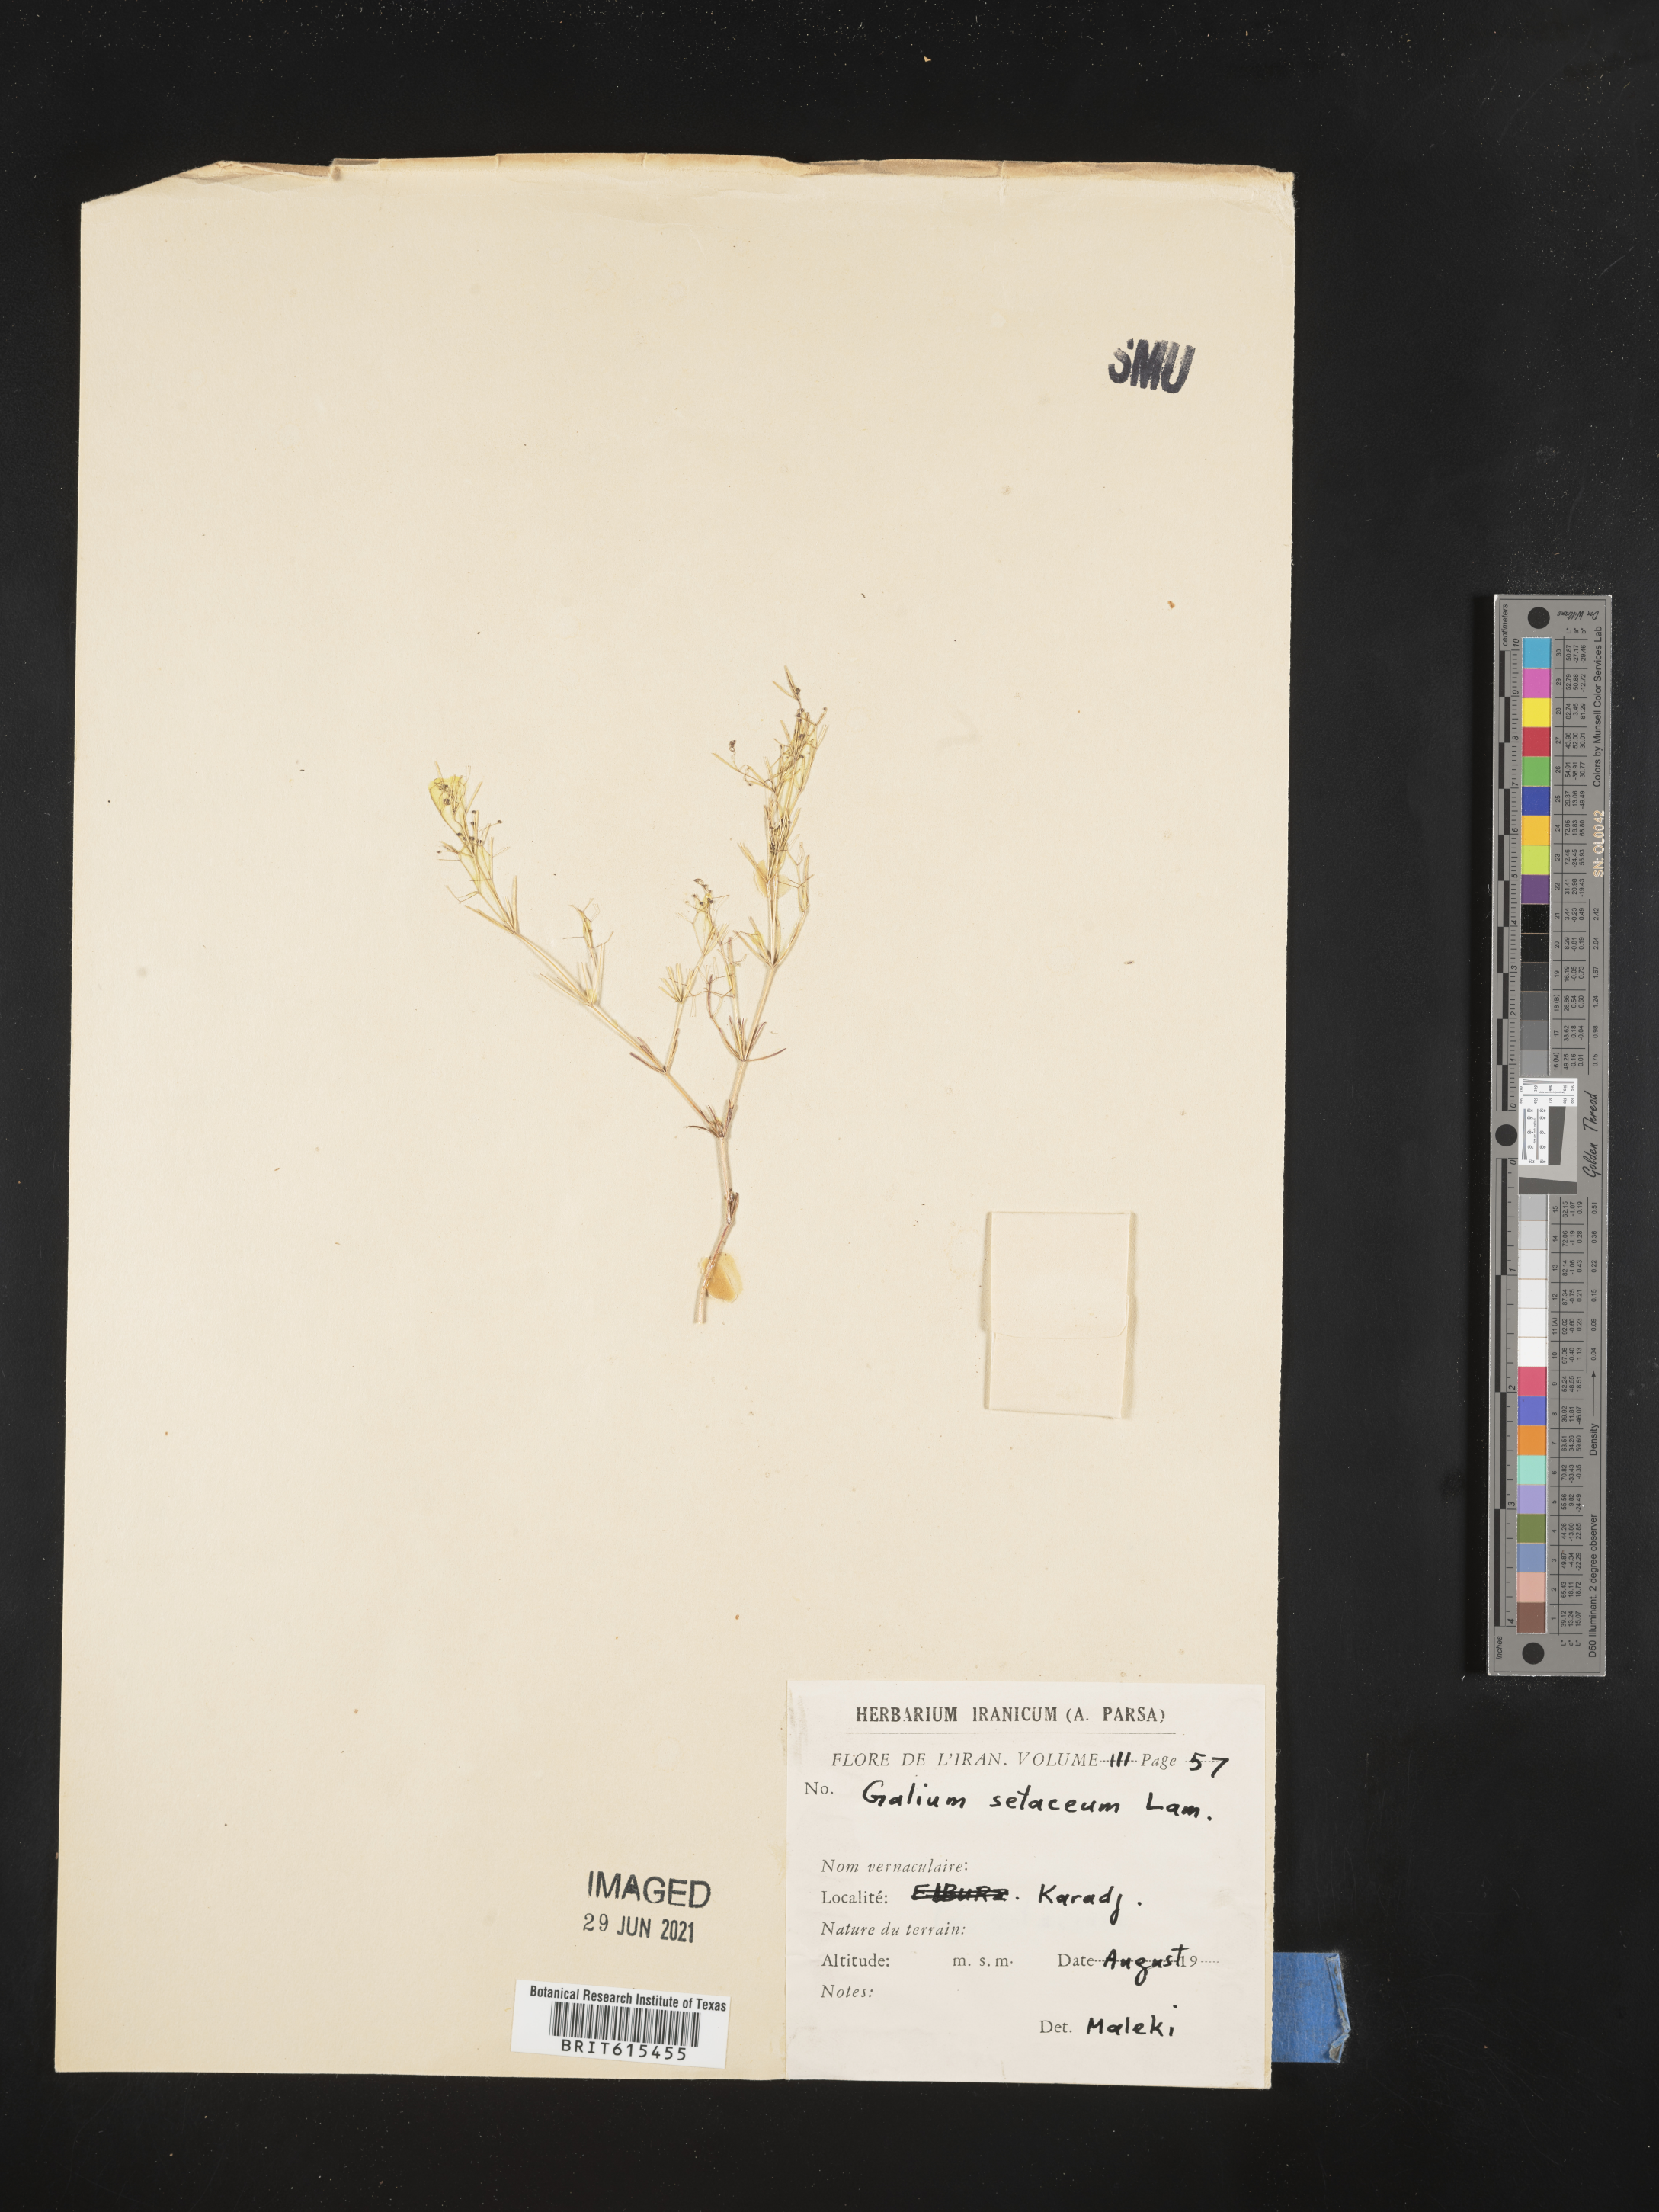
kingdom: Plantae
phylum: Tracheophyta
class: Magnoliopsida
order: Gentianales
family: Rubiaceae
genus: Galium
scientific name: Galium setaceum
